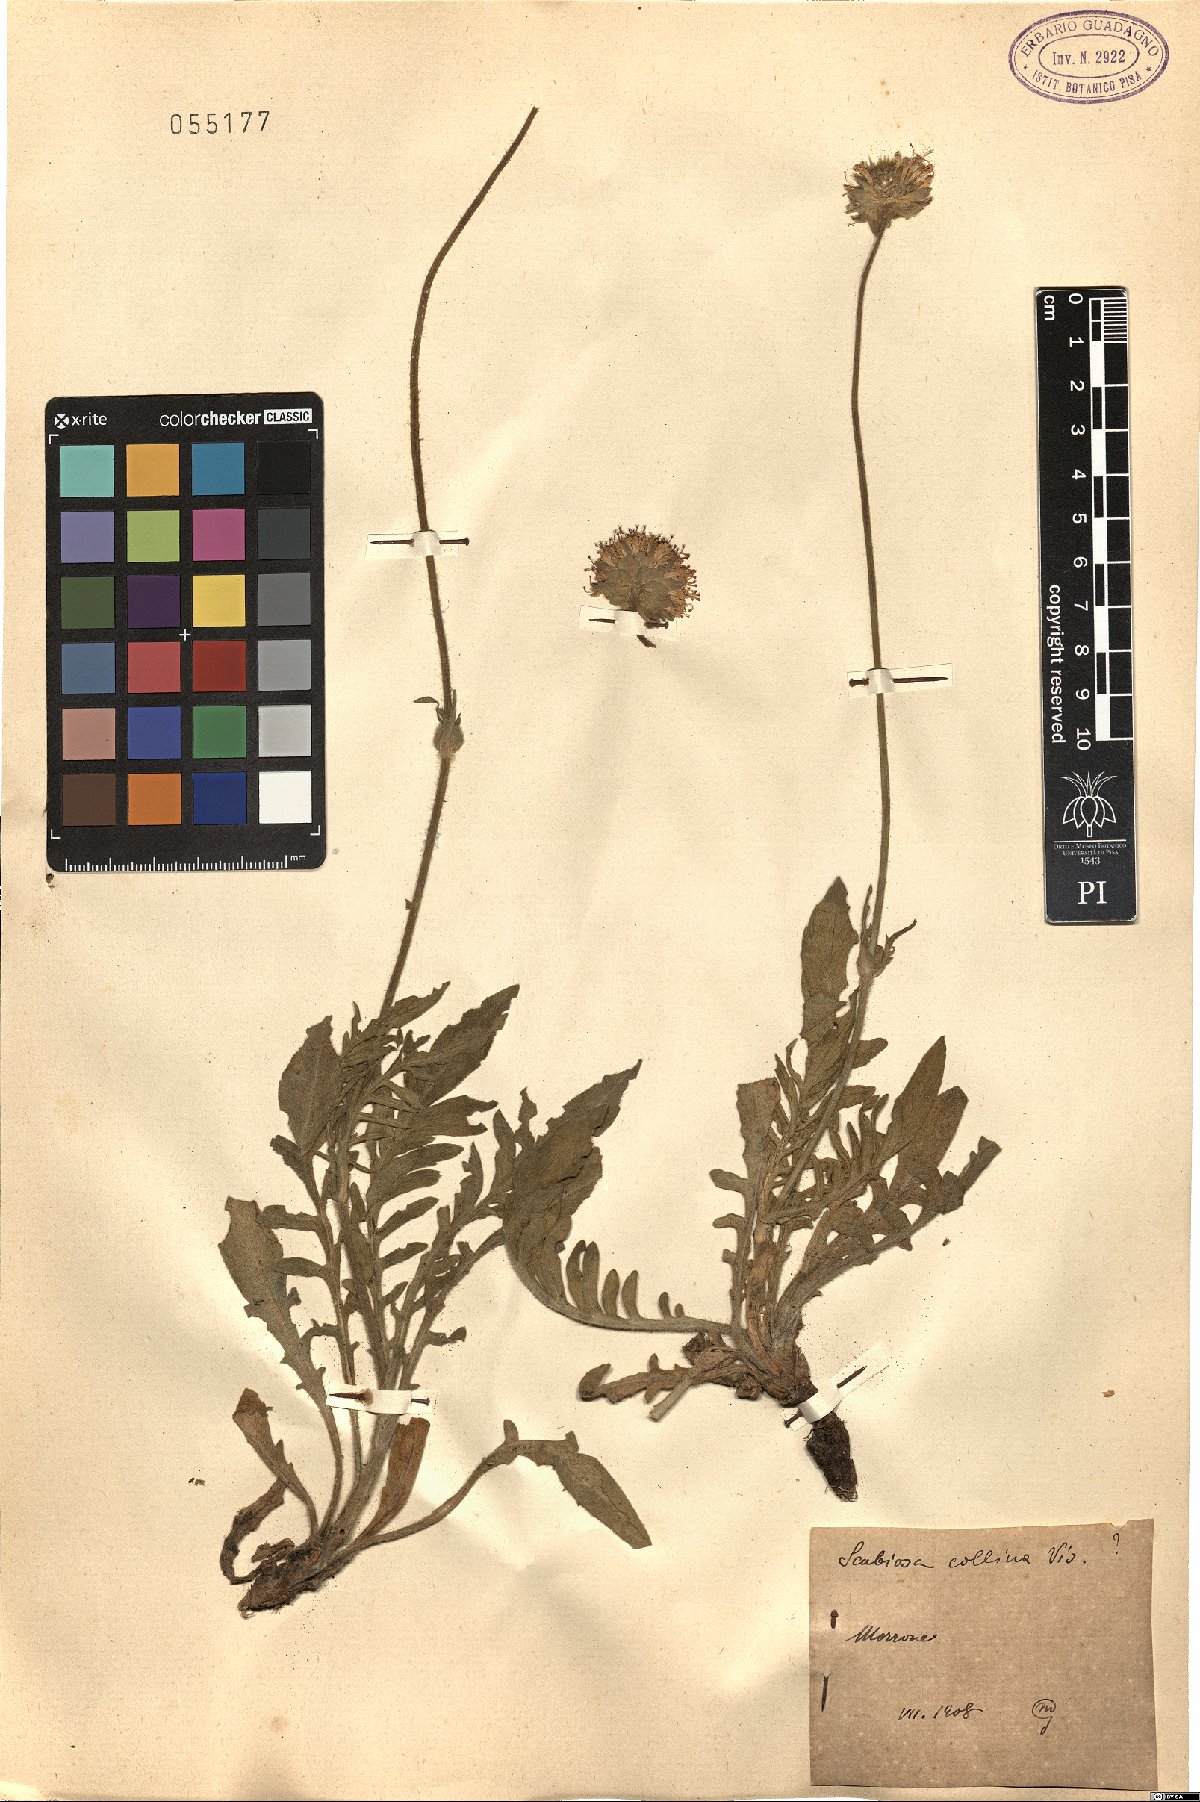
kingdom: Plantae
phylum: Tracheophyta
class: Magnoliopsida
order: Dipsacales
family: Caprifoliaceae
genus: Knautia
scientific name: Knautia collina
